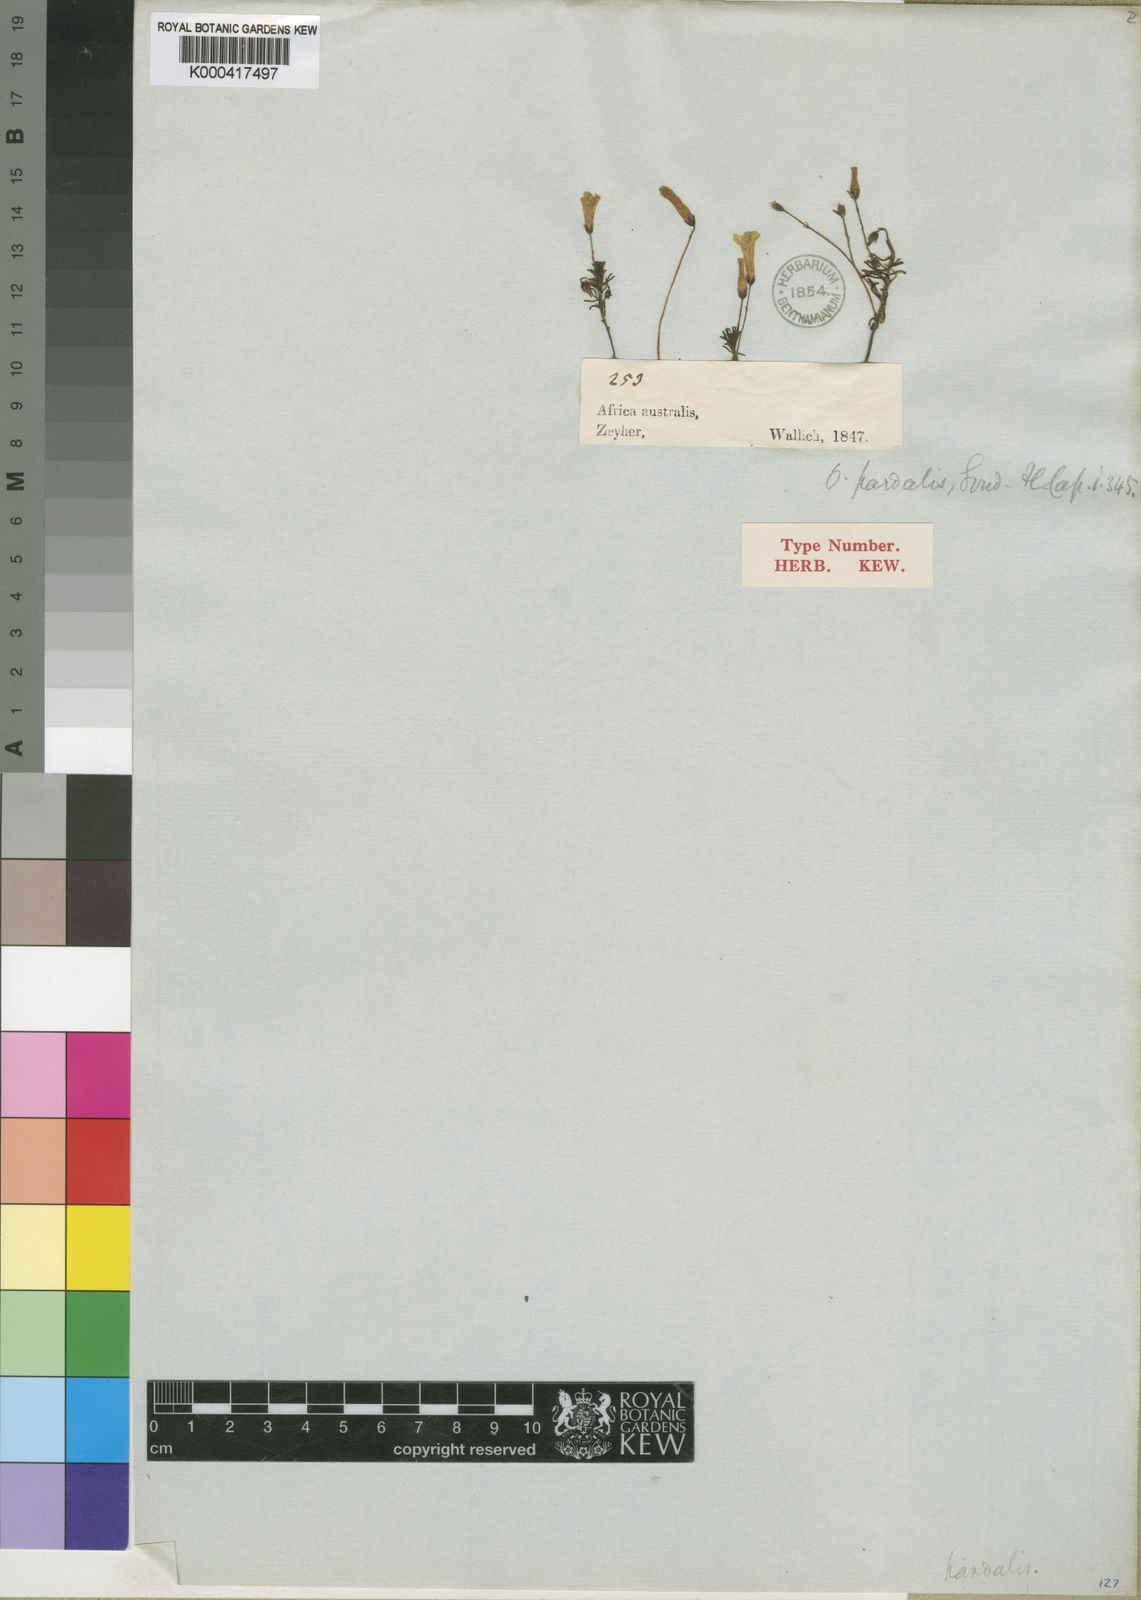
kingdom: Plantae
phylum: Tracheophyta
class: Magnoliopsida
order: Oxalidales
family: Oxalidaceae
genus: Oxalis
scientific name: Oxalis pardalis
